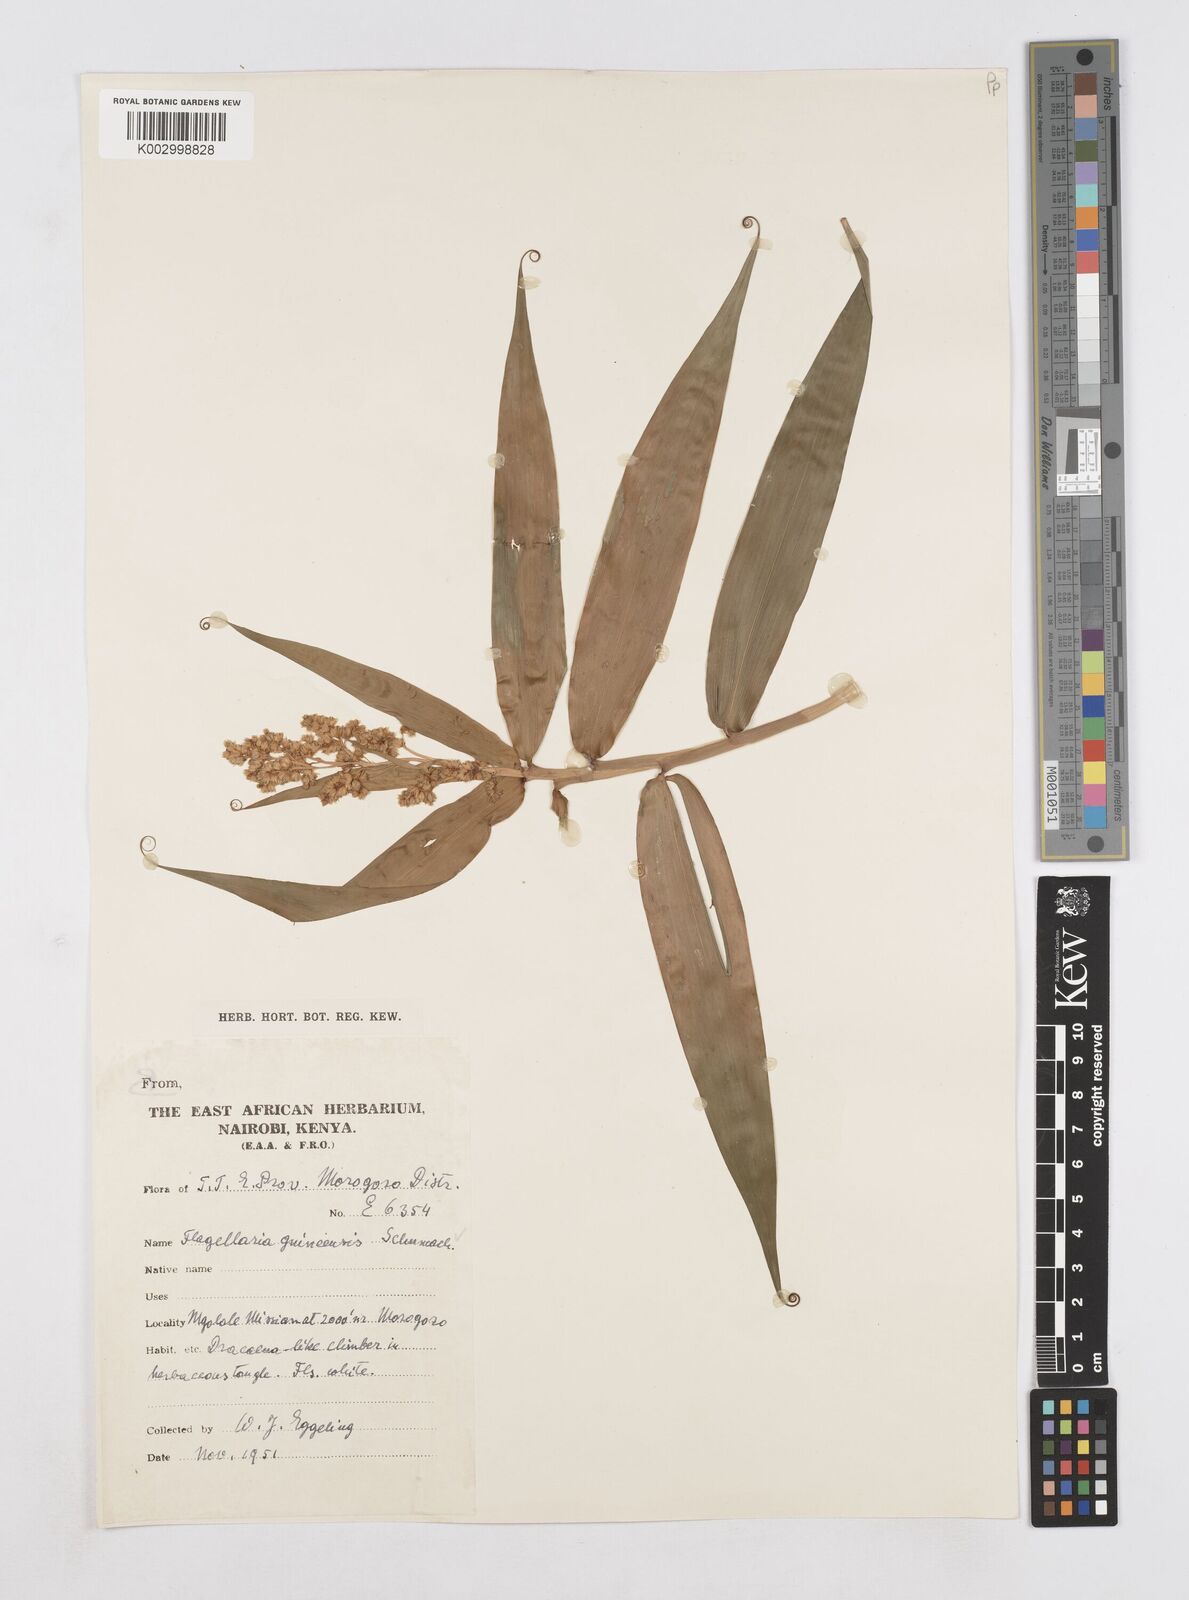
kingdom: Plantae
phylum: Tracheophyta
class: Liliopsida
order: Poales
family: Flagellariaceae
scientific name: Flagellariaceae
